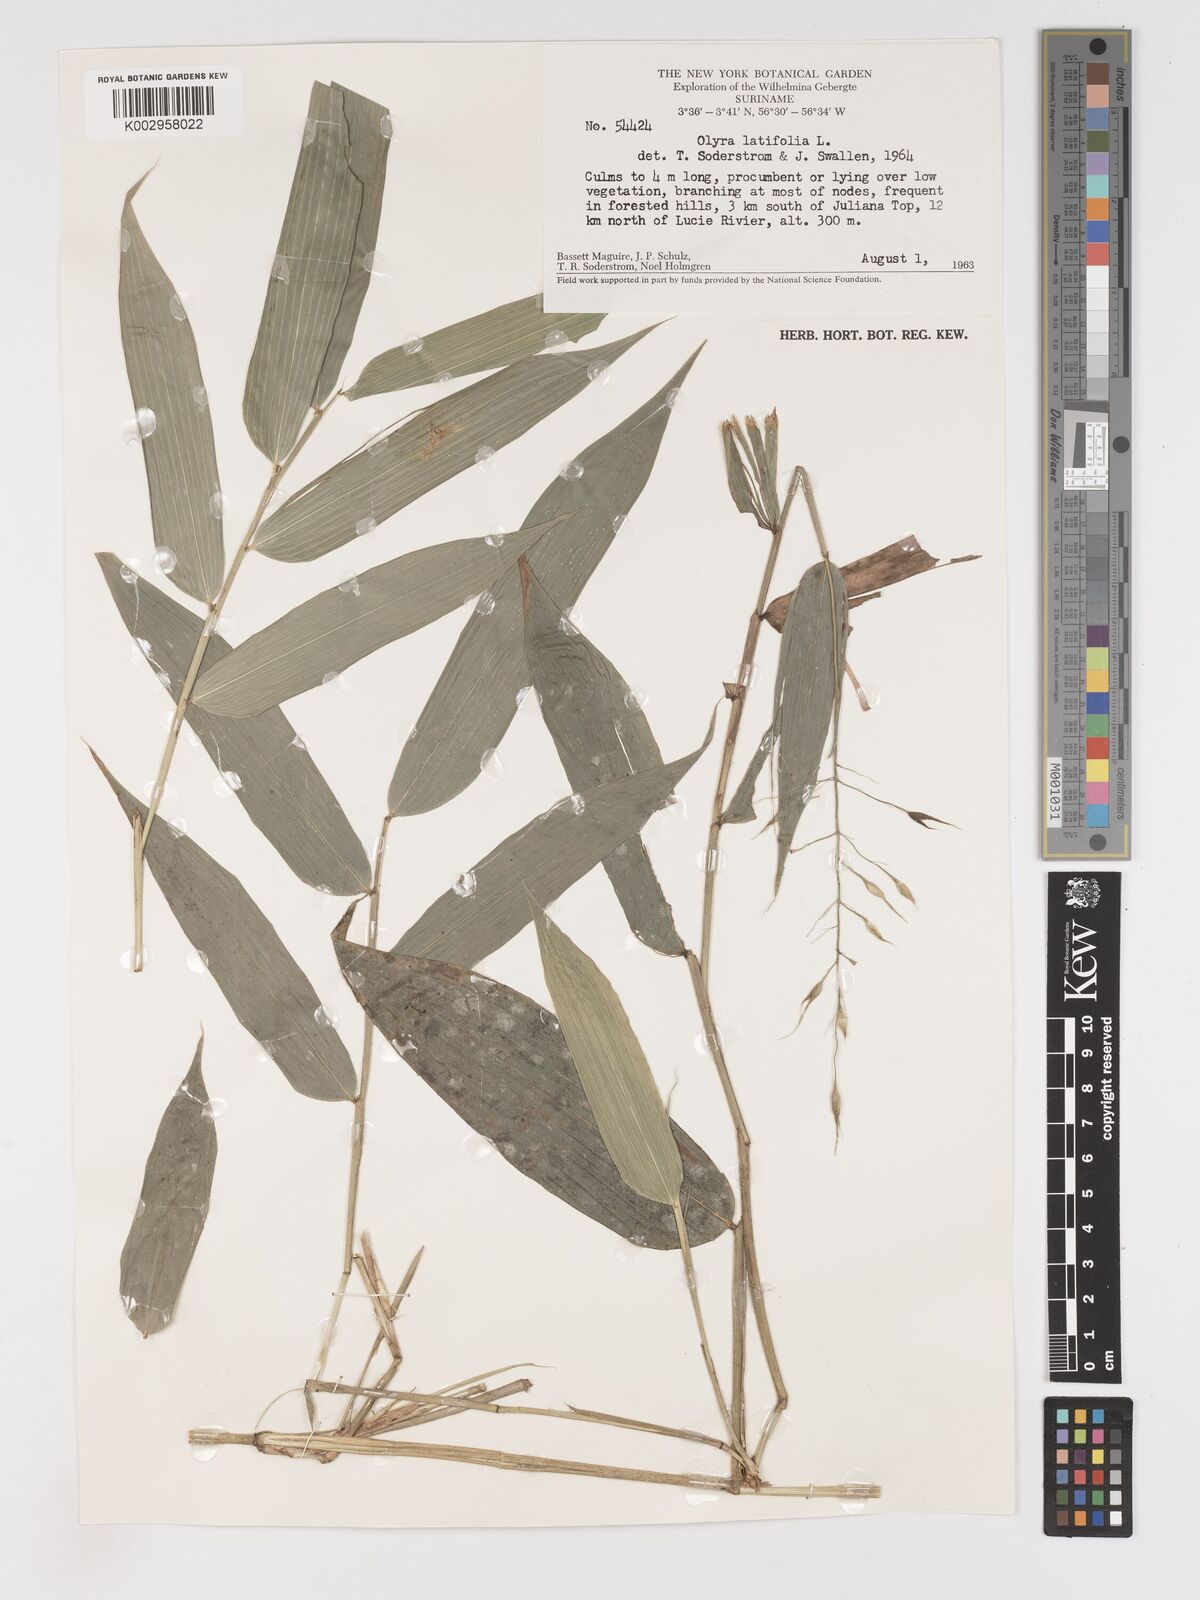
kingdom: Plantae
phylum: Tracheophyta
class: Liliopsida
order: Poales
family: Poaceae
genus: Olyra
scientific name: Olyra latifolia
